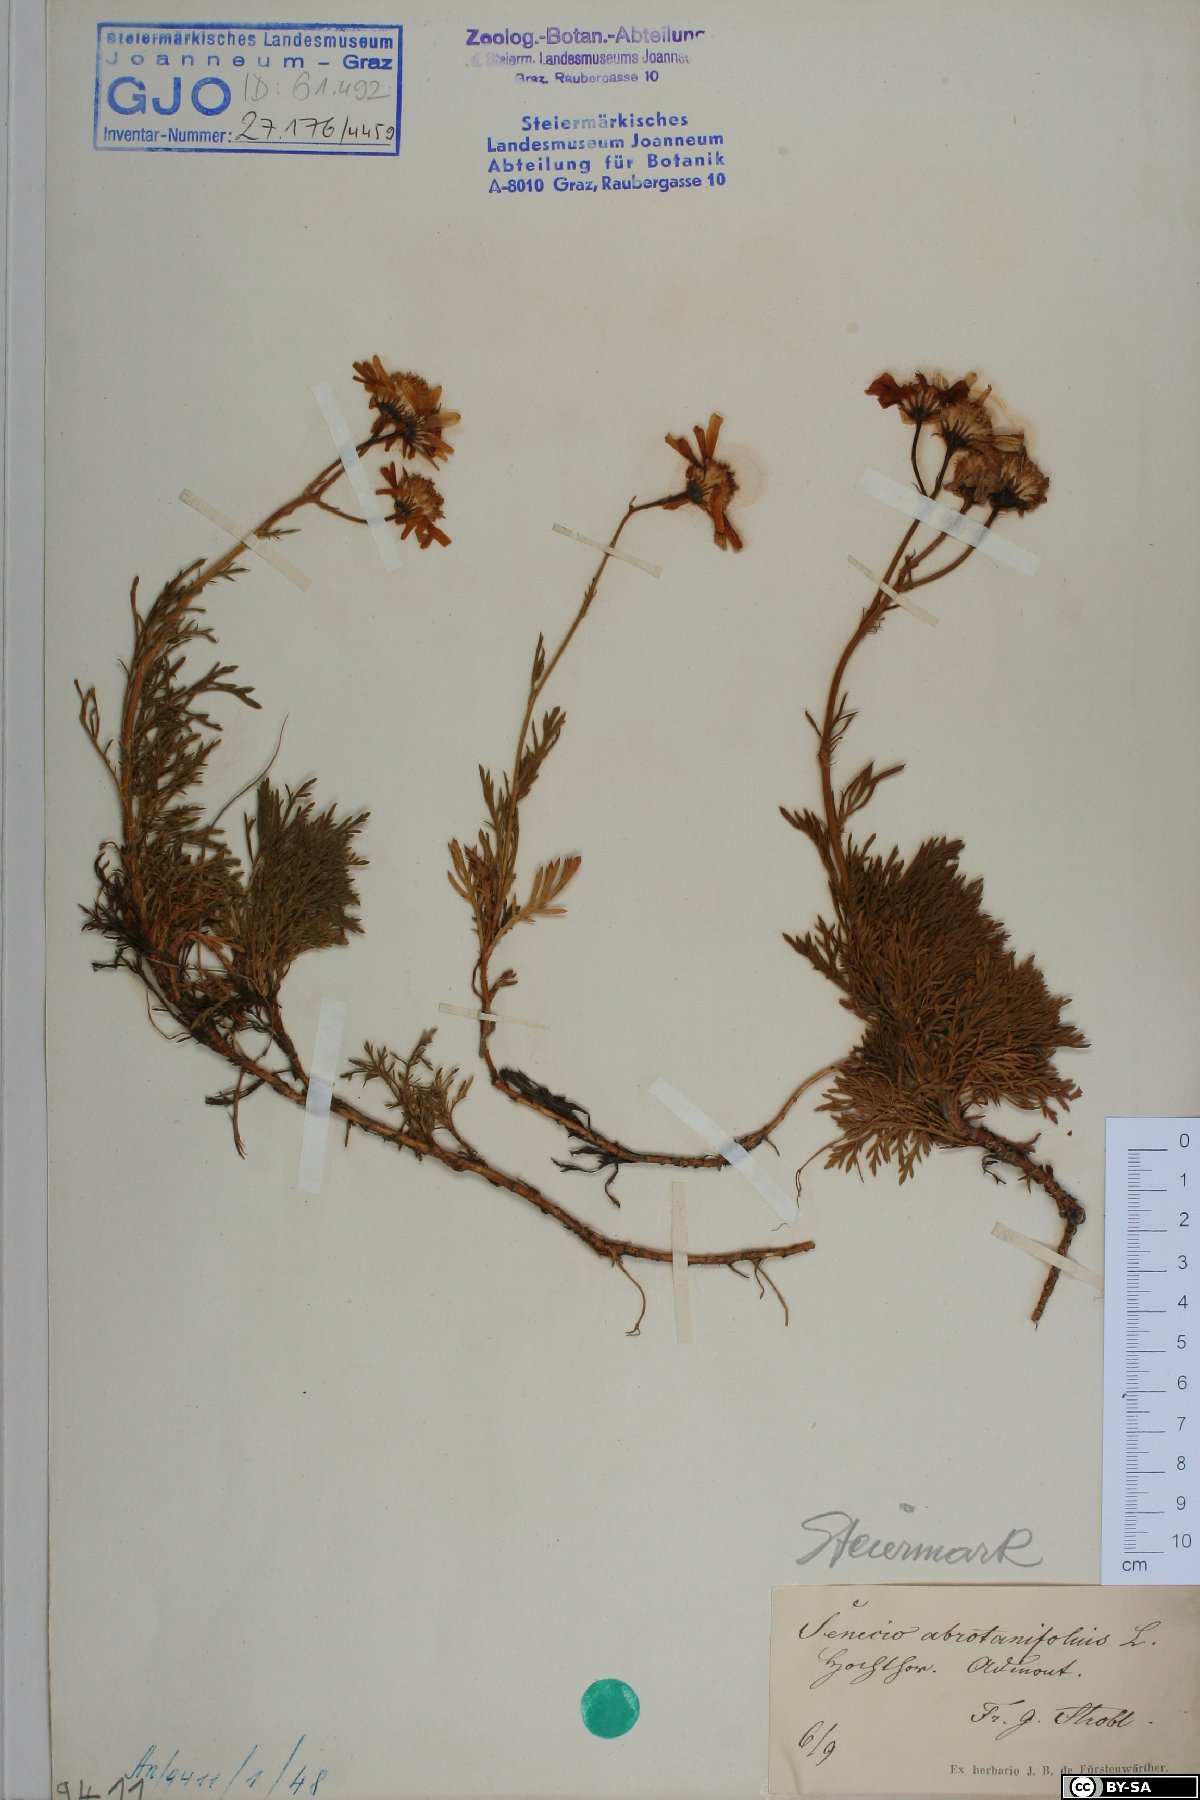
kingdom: Plantae
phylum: Tracheophyta
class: Magnoliopsida
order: Asterales
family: Asteraceae
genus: Jacobaea
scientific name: Jacobaea abrotanifolia
